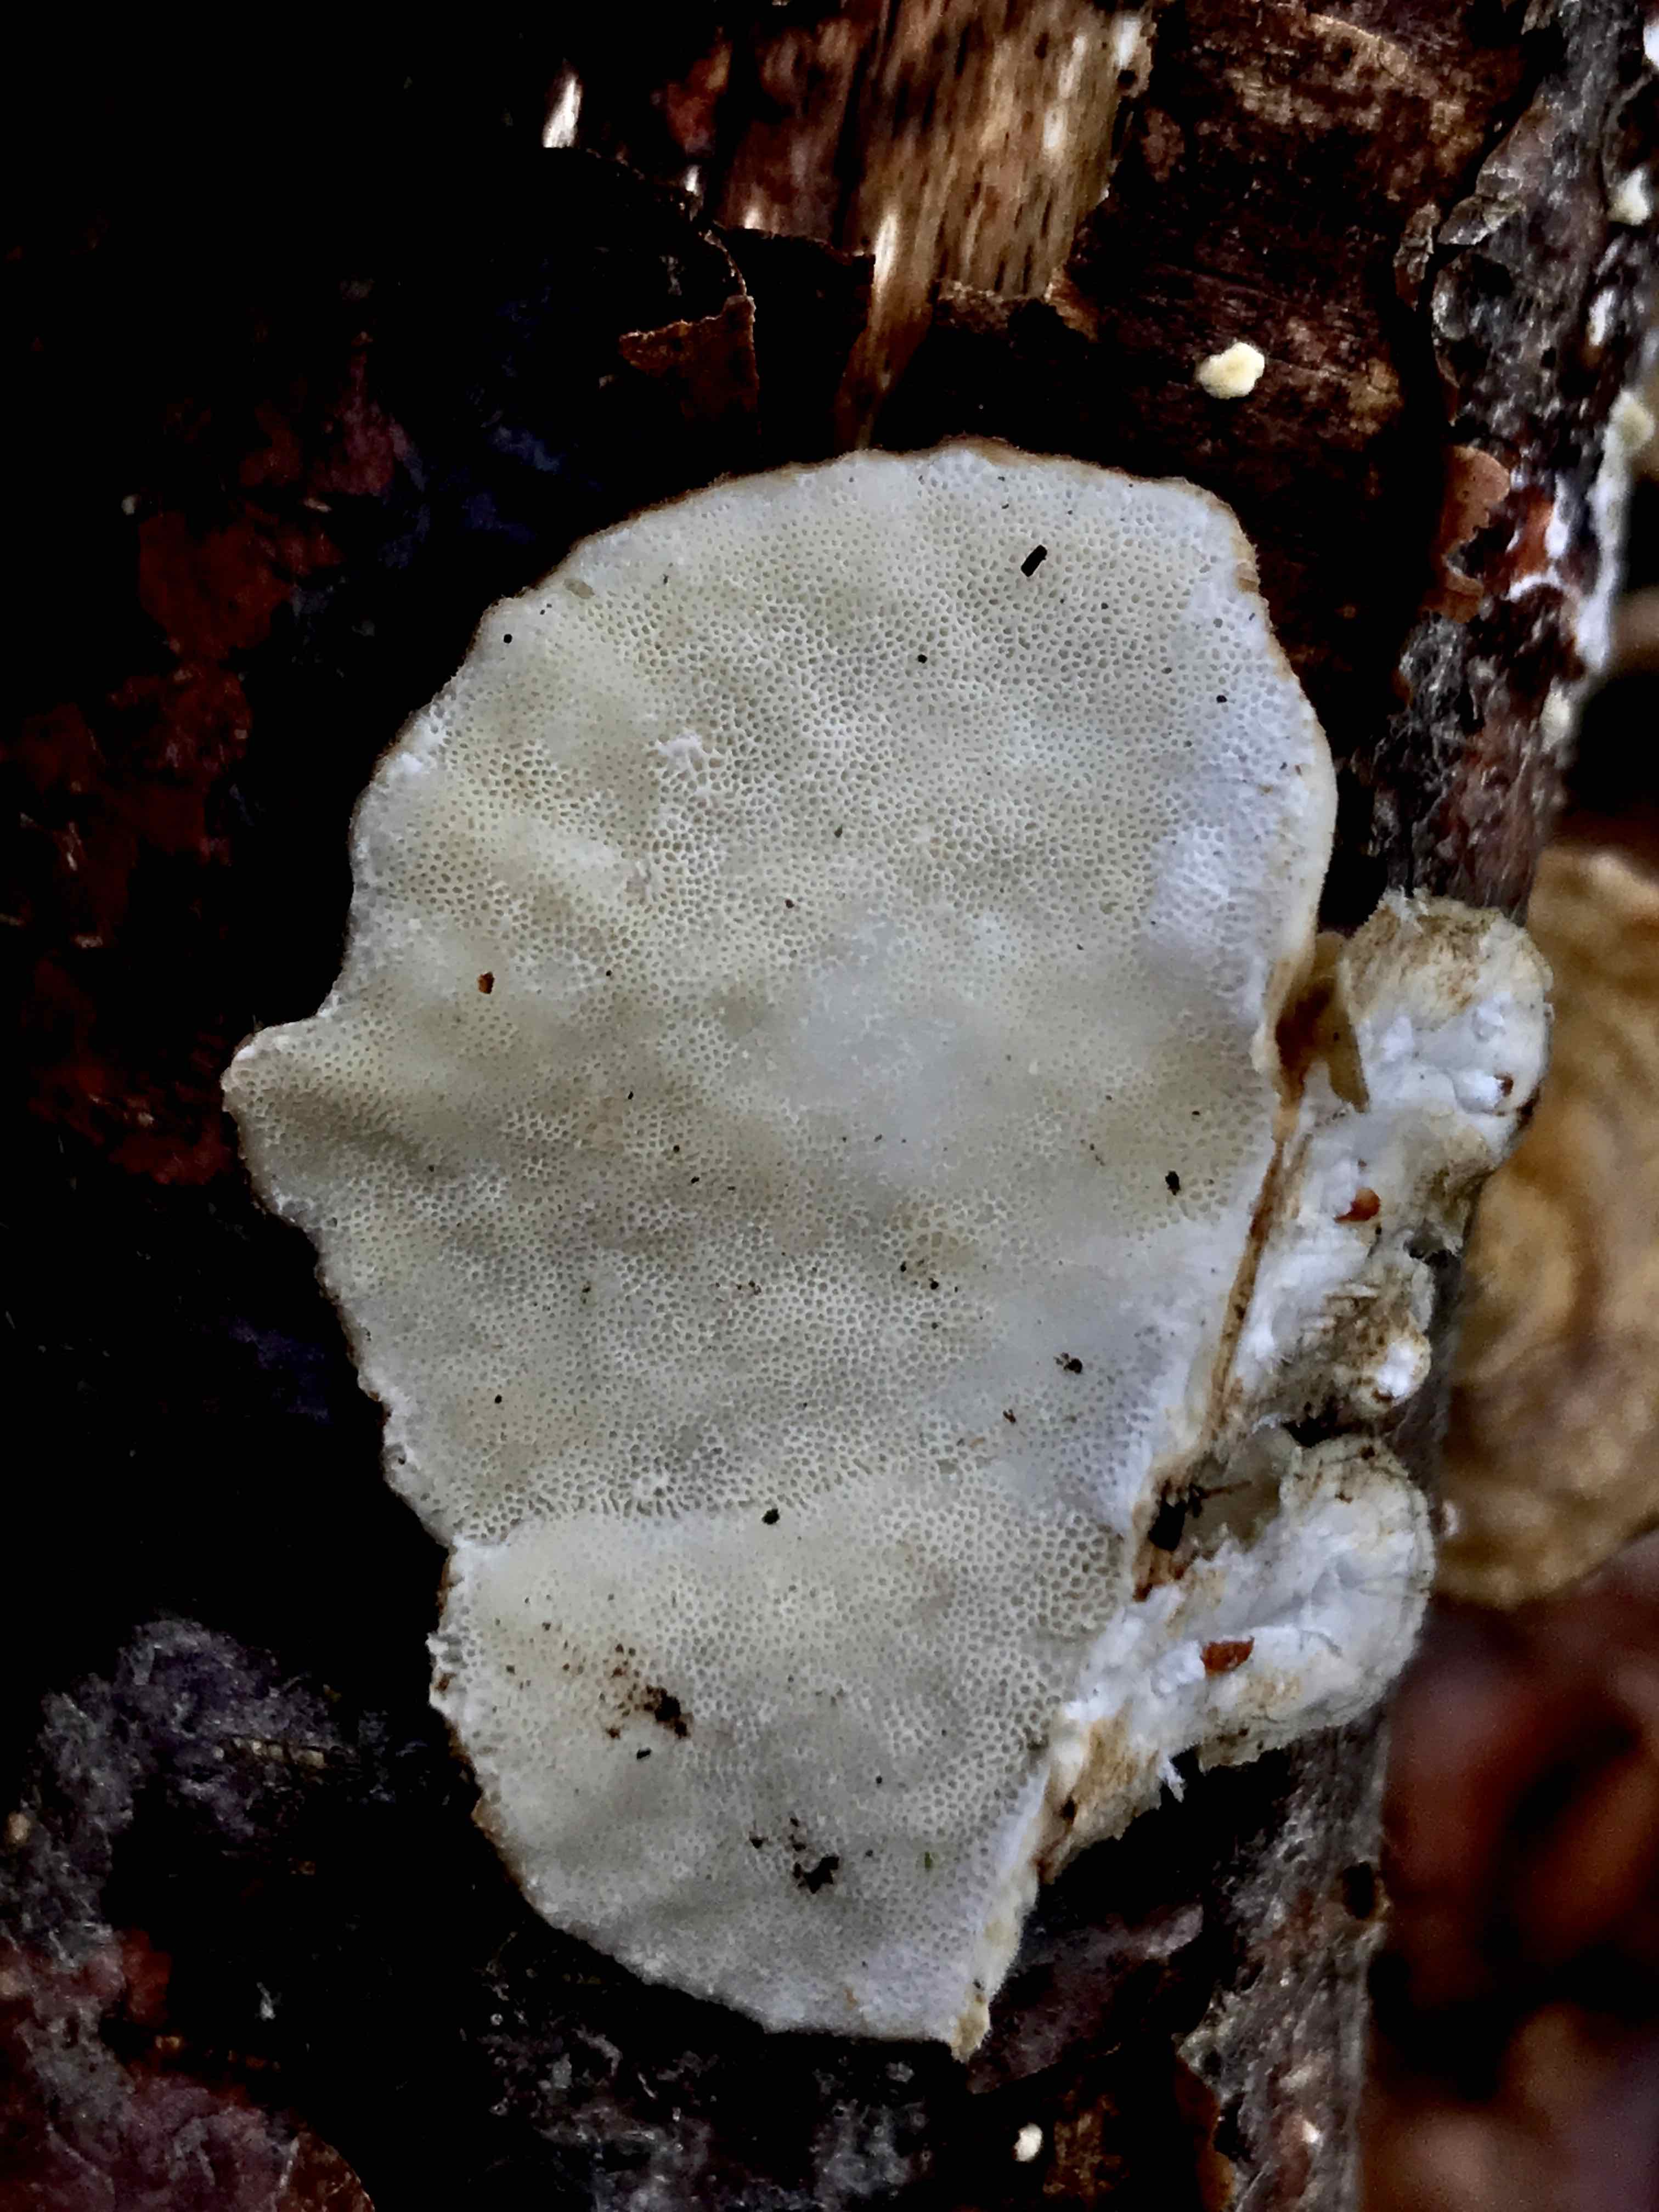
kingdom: Fungi
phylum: Basidiomycota
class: Agaricomycetes
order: Polyporales
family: Polyporaceae
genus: Trametes
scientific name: Trametes ochracea
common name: bæltet læderporesvamp
